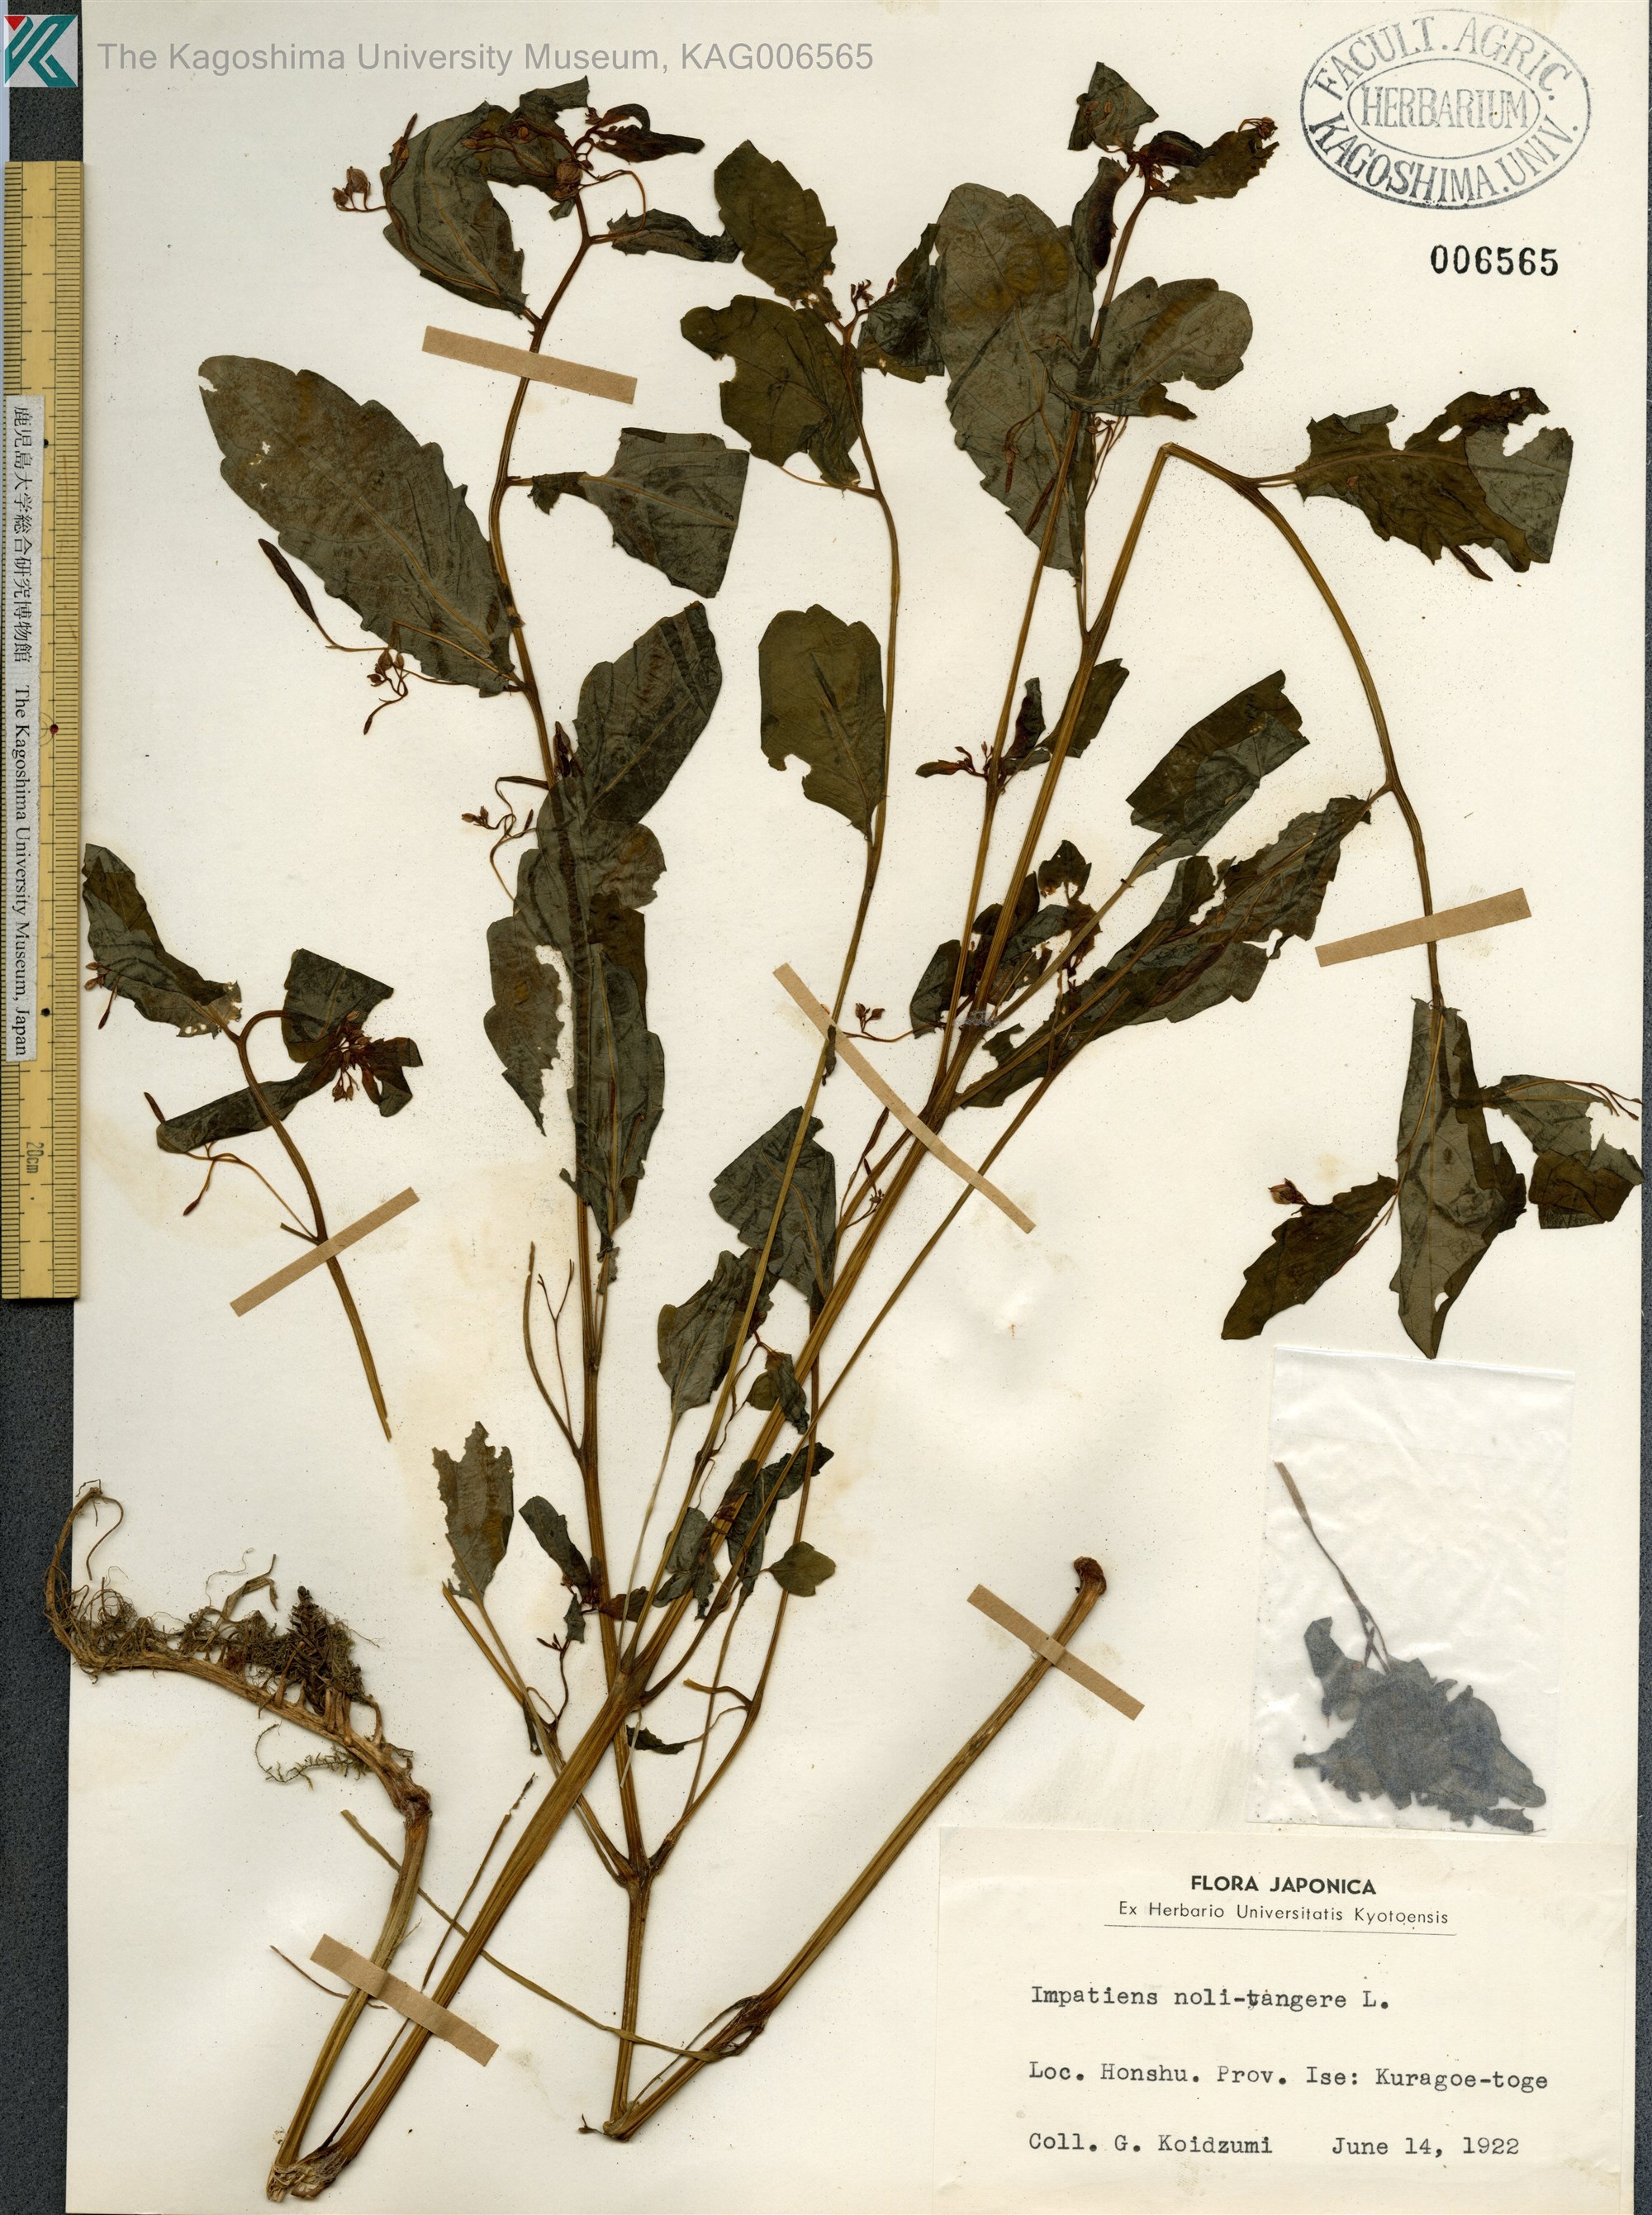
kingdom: Plantae
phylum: Tracheophyta
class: Magnoliopsida
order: Ericales
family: Balsaminaceae
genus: Impatiens
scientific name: Impatiens noli-tangere
